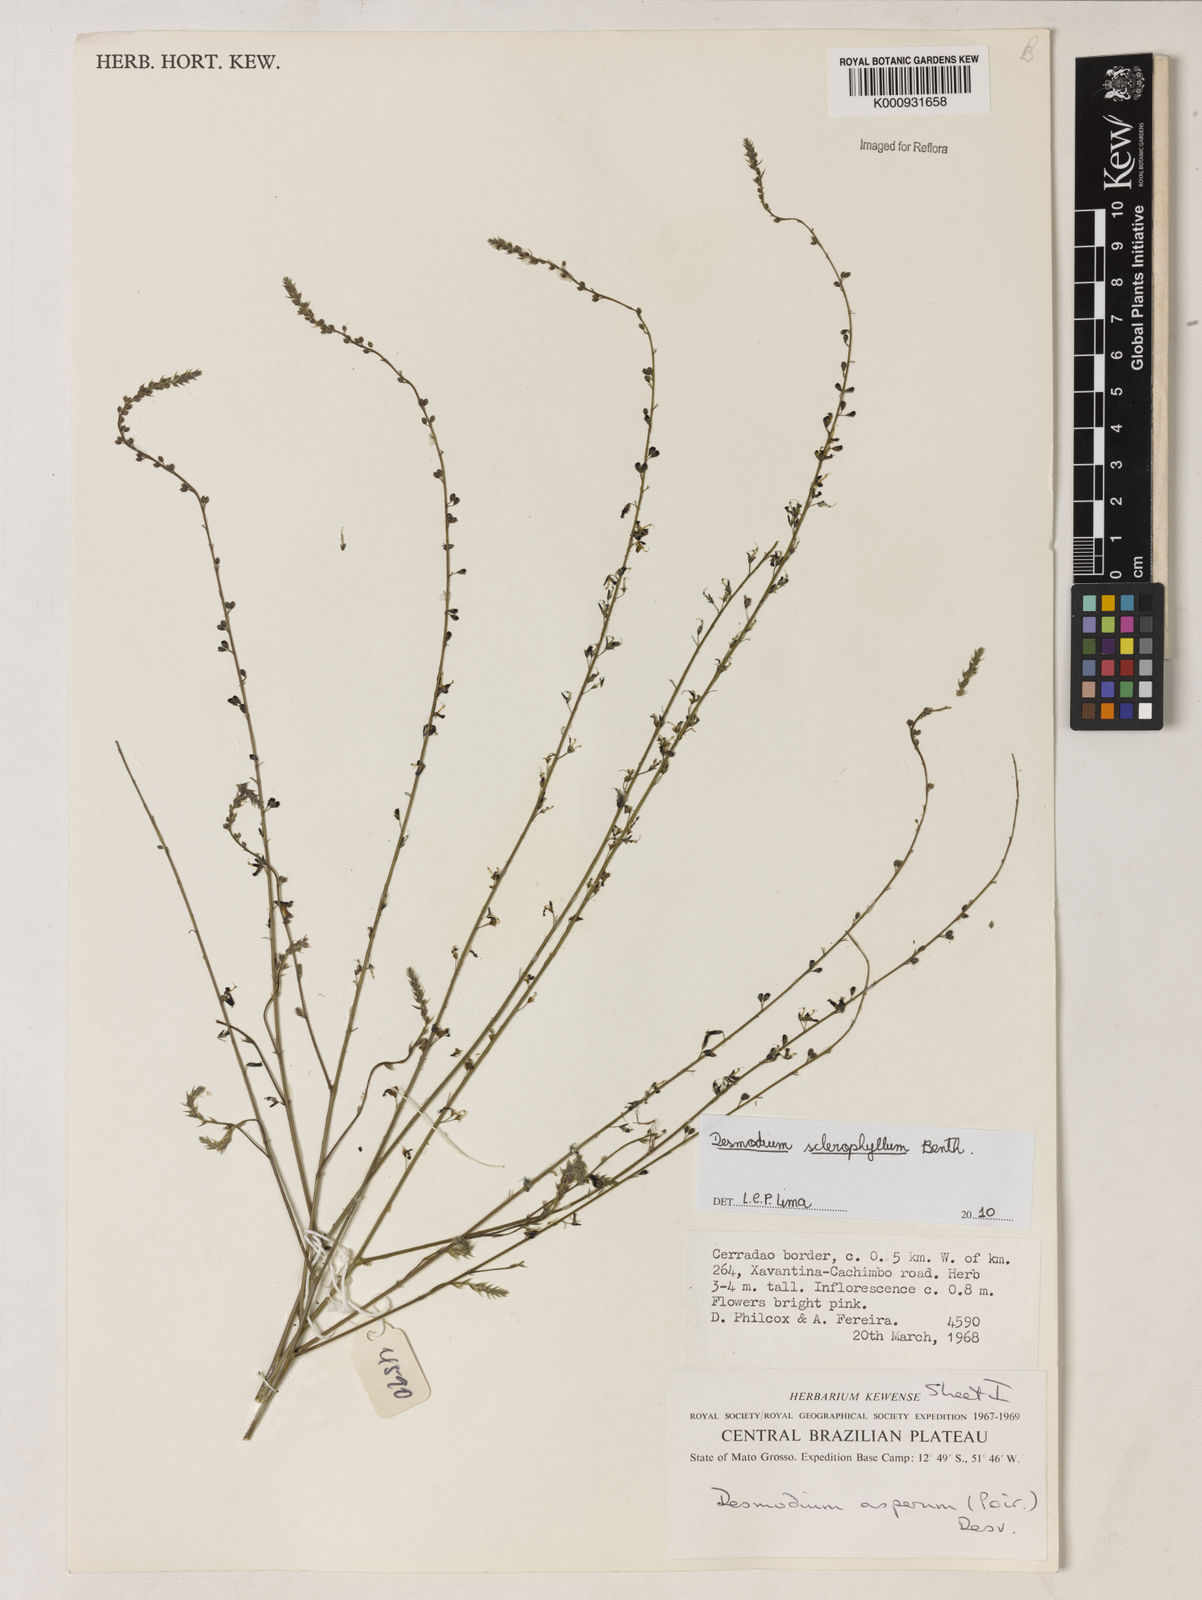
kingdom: Plantae
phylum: Tracheophyta
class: Magnoliopsida
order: Fabales
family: Fabaceae
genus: Desmodium
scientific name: Desmodium sclerophyllum
